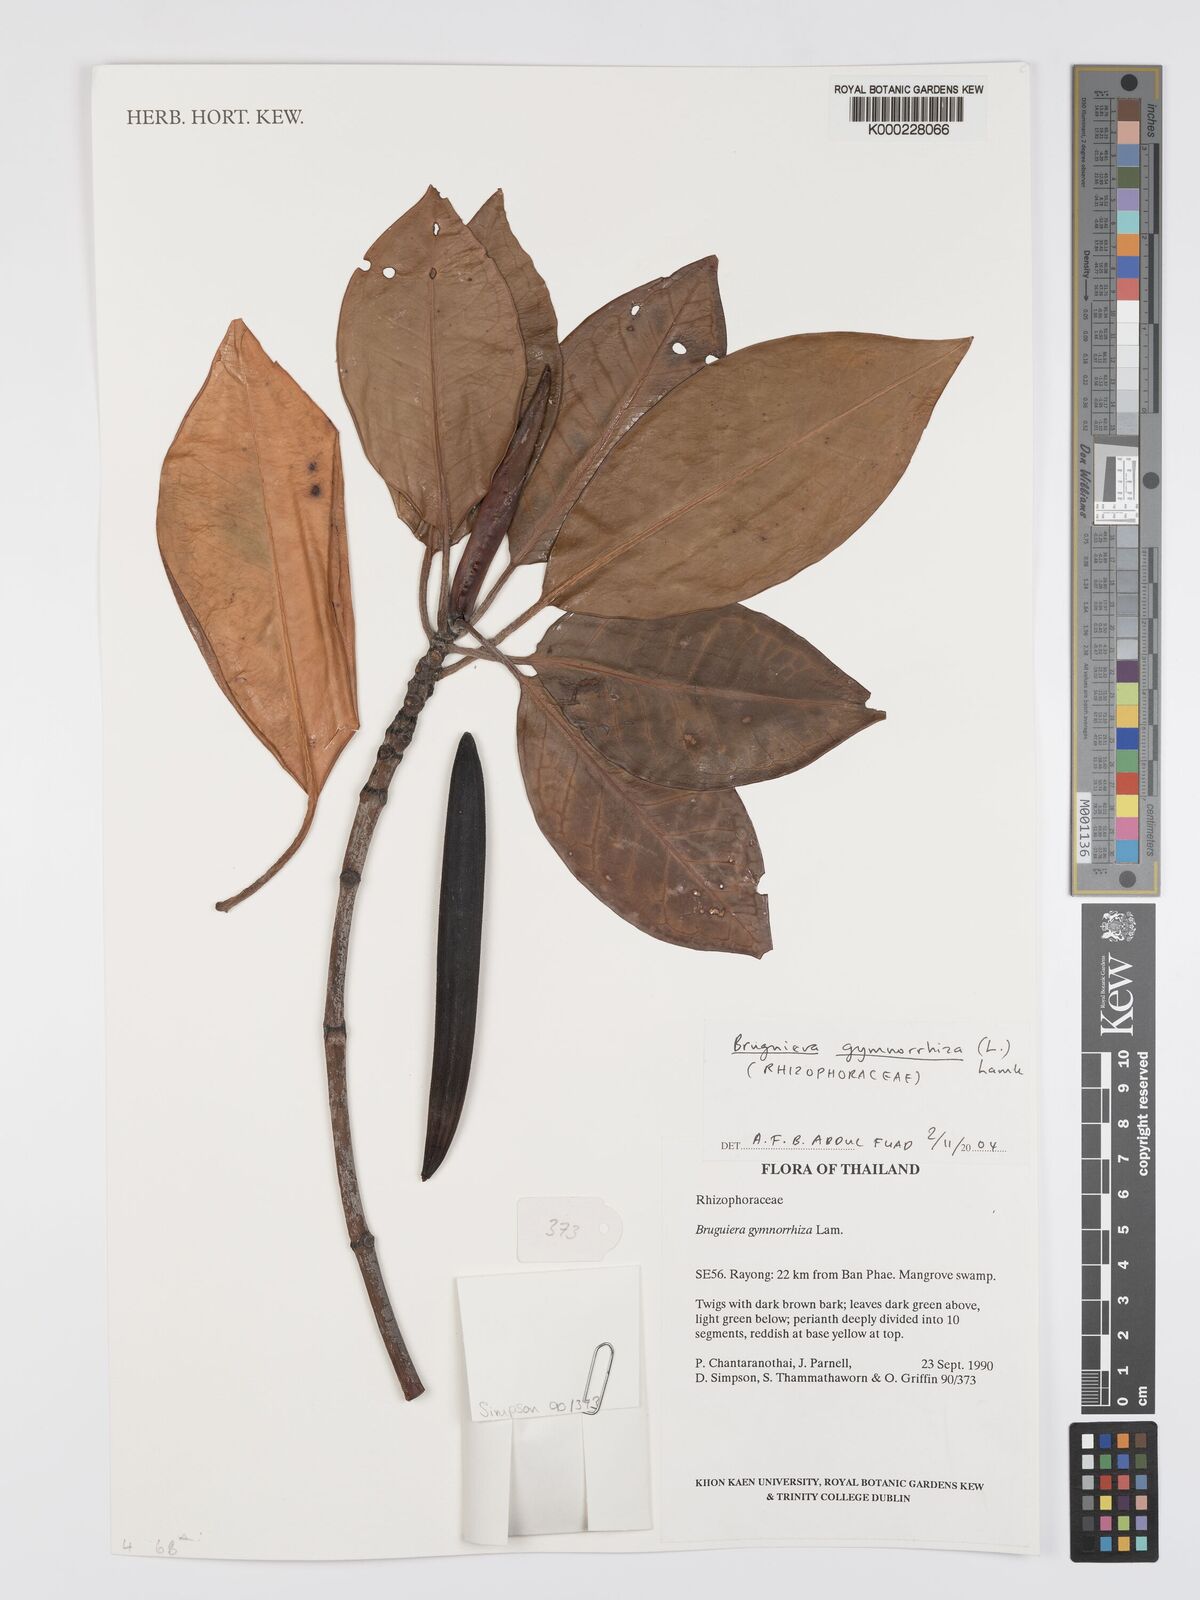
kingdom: Plantae
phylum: Tracheophyta
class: Magnoliopsida
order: Malpighiales
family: Rhizophoraceae
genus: Bruguiera
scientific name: Bruguiera gymnorhiza
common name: Oriental mangrove
